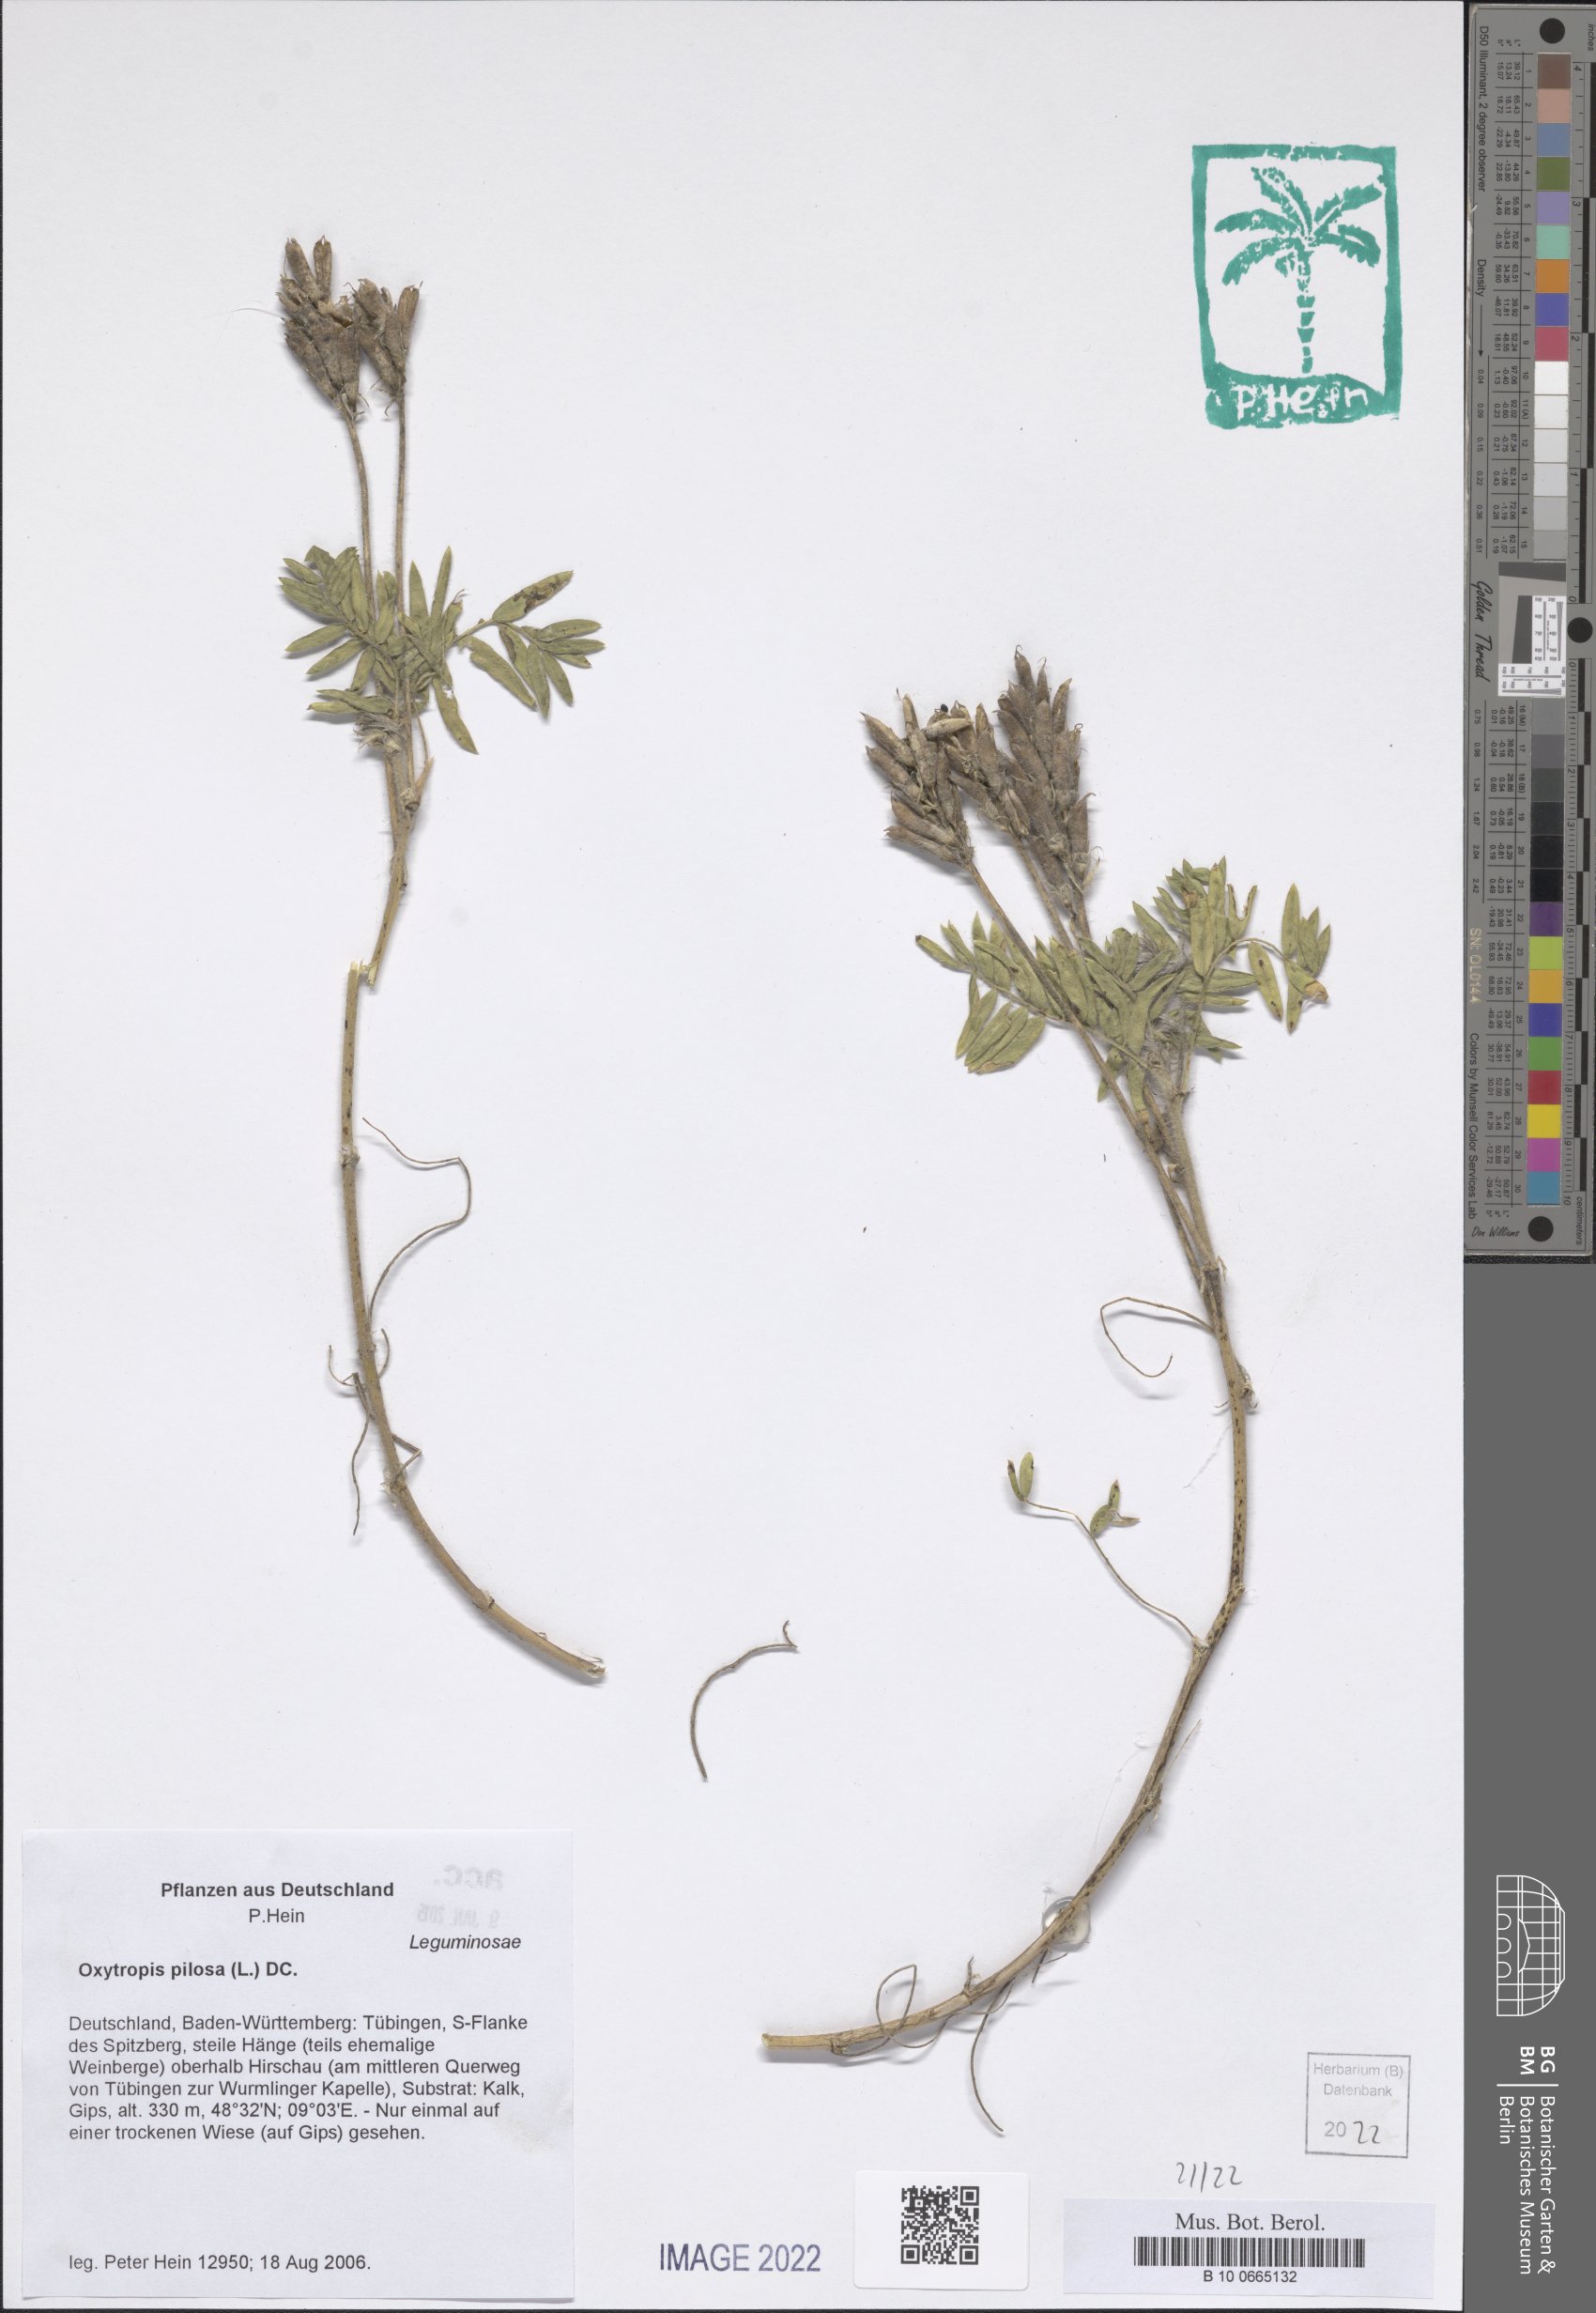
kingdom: Plantae
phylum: Tracheophyta
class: Magnoliopsida
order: Fabales
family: Fabaceae
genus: Oxytropis
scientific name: Oxytropis pilosa
